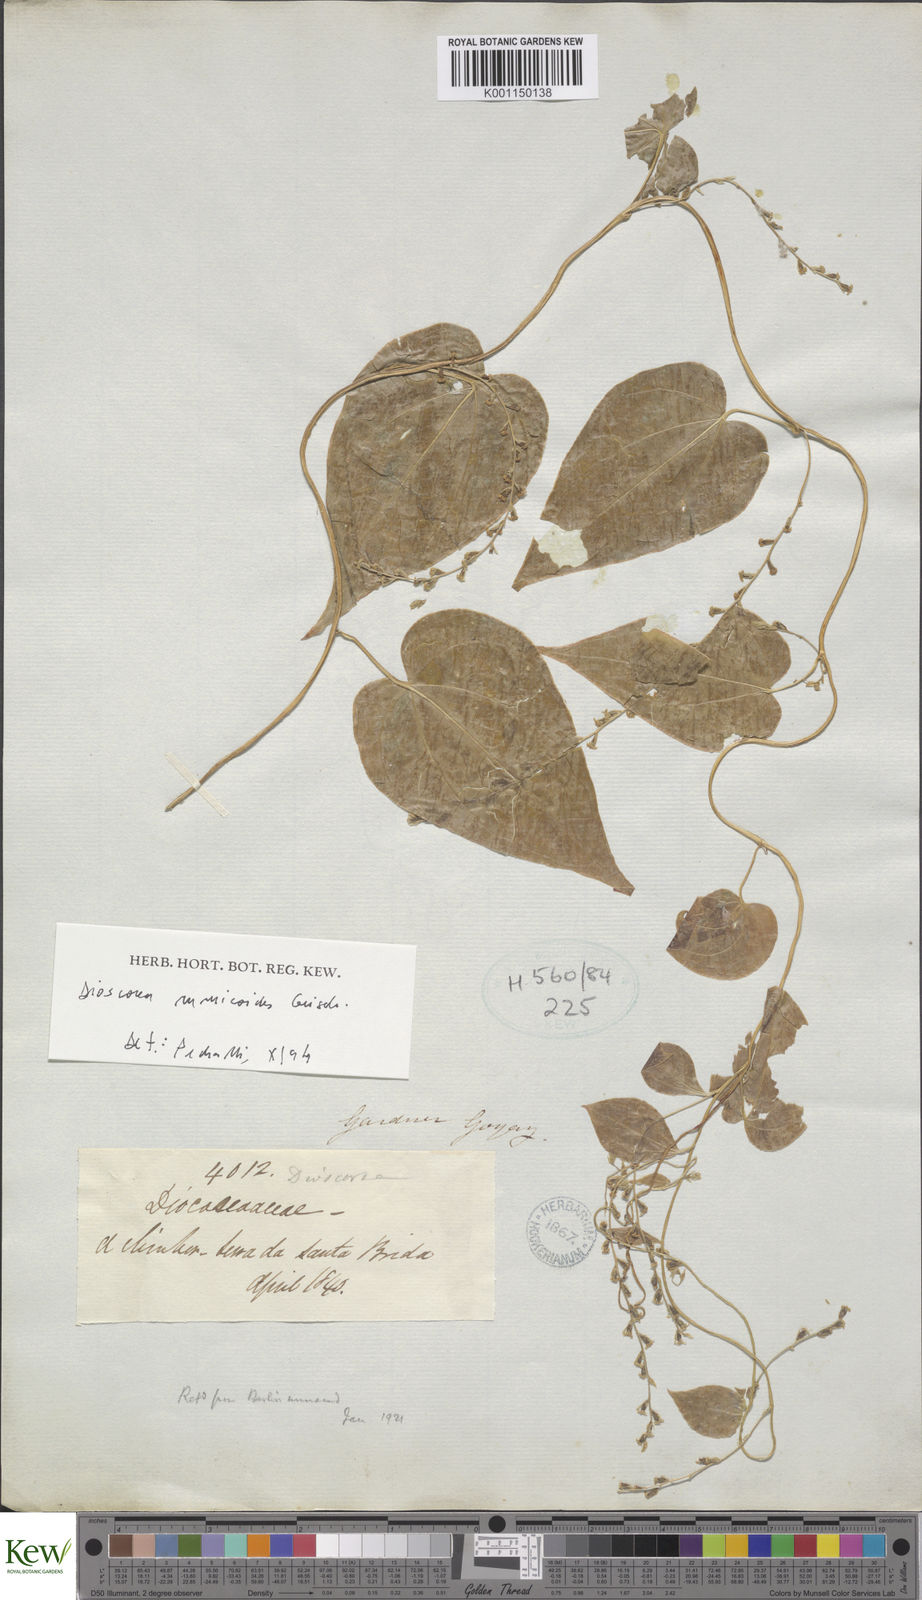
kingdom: Plantae
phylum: Tracheophyta
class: Liliopsida
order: Dioscoreales
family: Dioscoreaceae
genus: Dioscorea
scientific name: Dioscorea rumicoides
